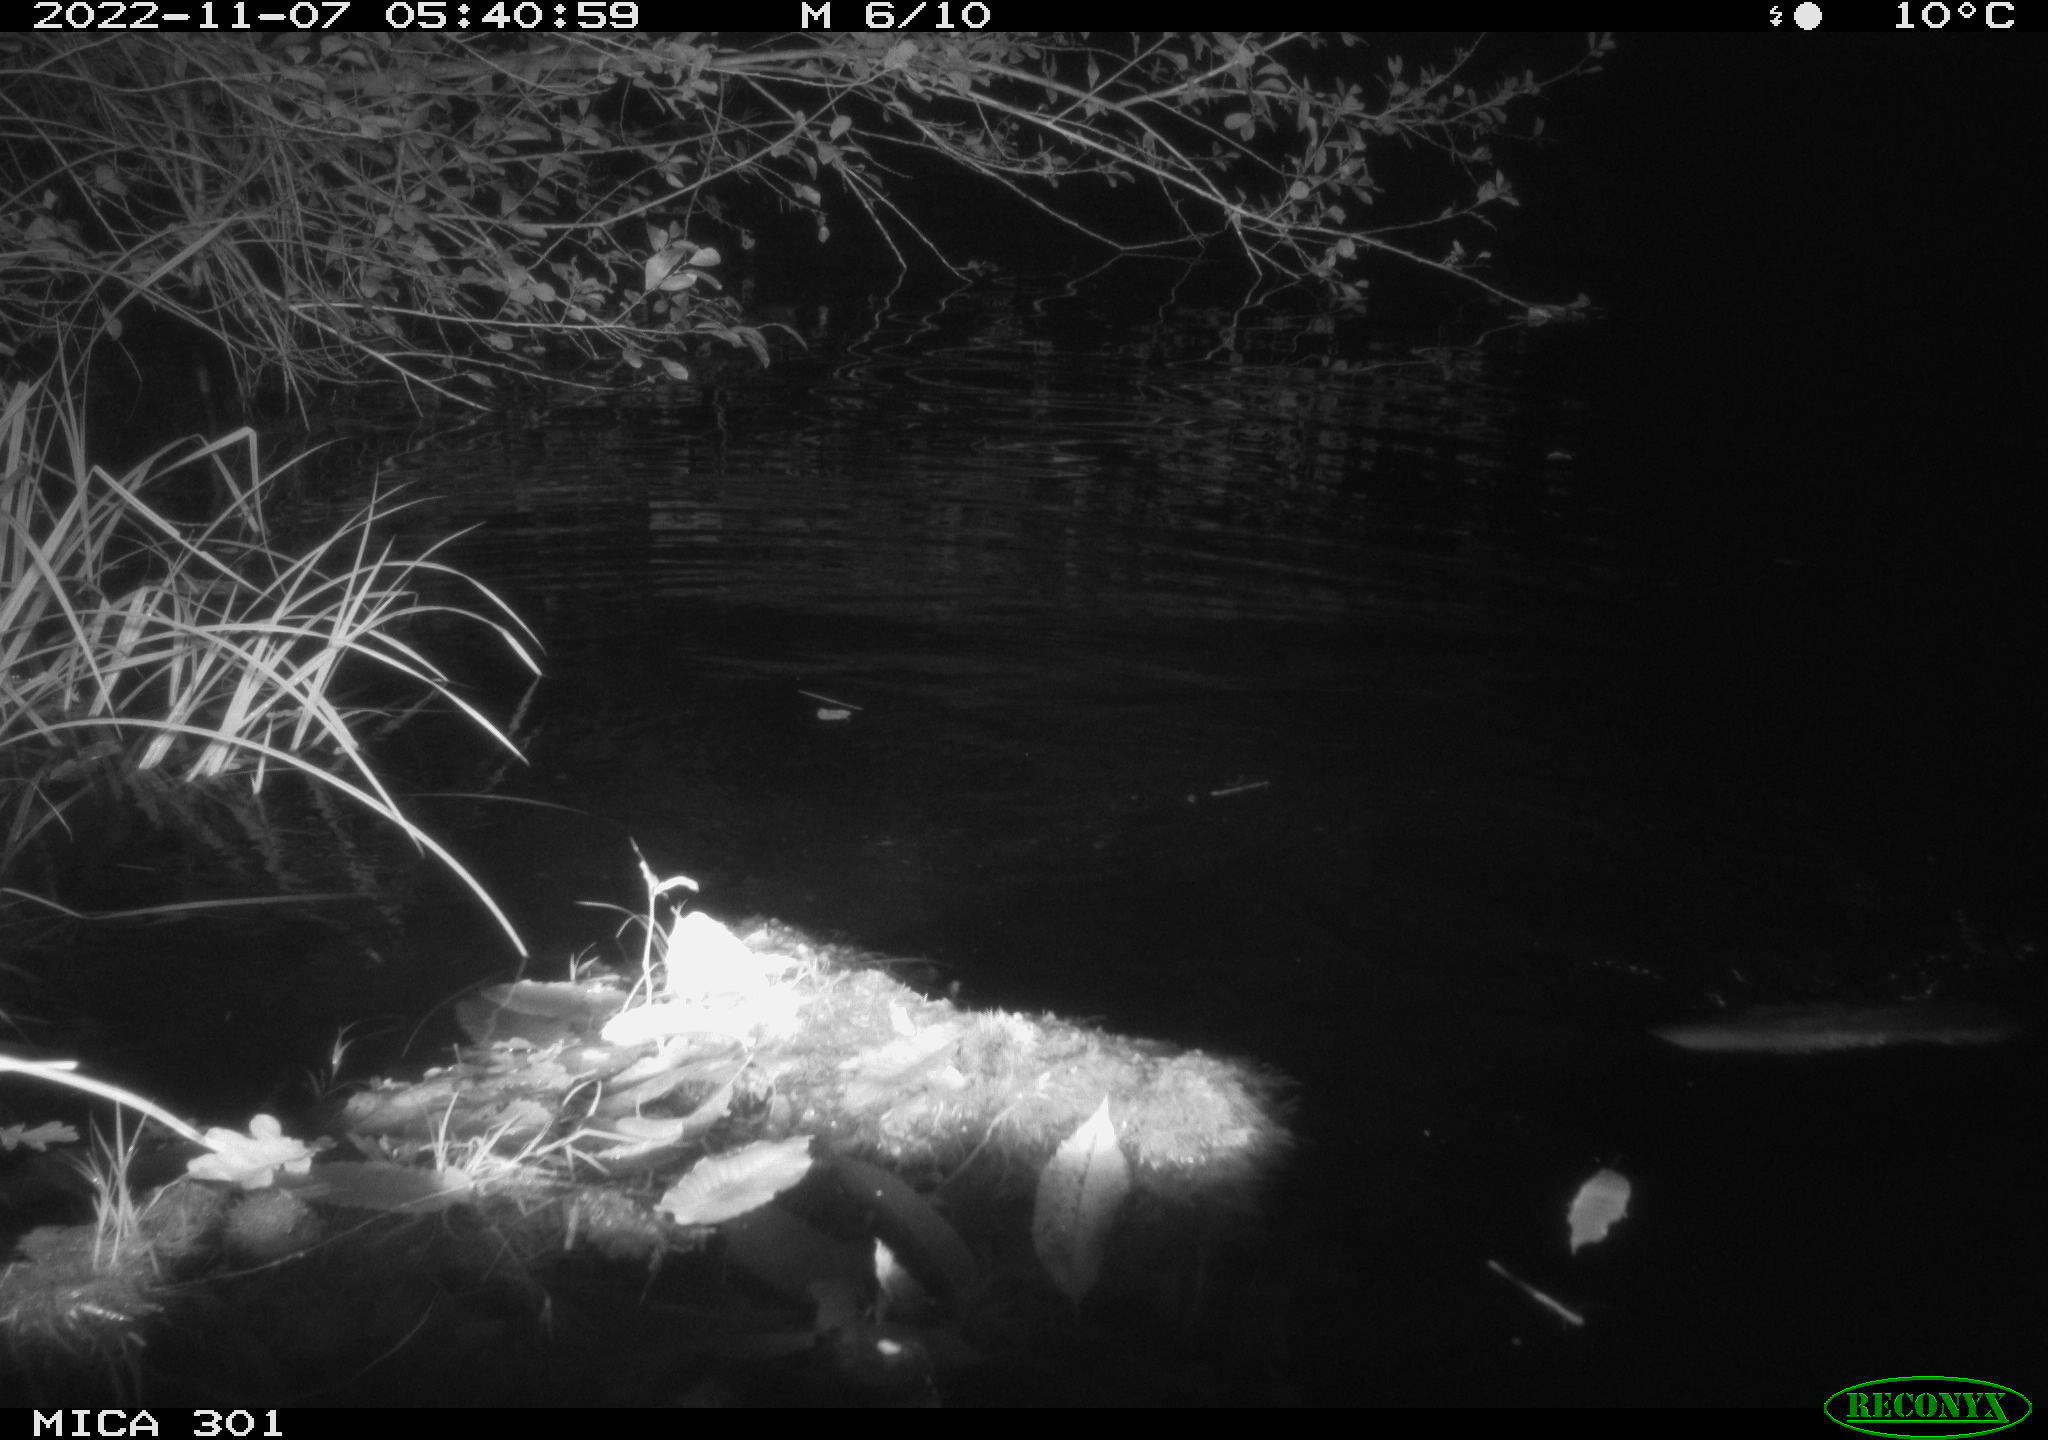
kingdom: Animalia
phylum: Chordata
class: Mammalia
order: Rodentia
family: Castoridae
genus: Castor
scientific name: Castor fiber
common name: Eurasian beaver
